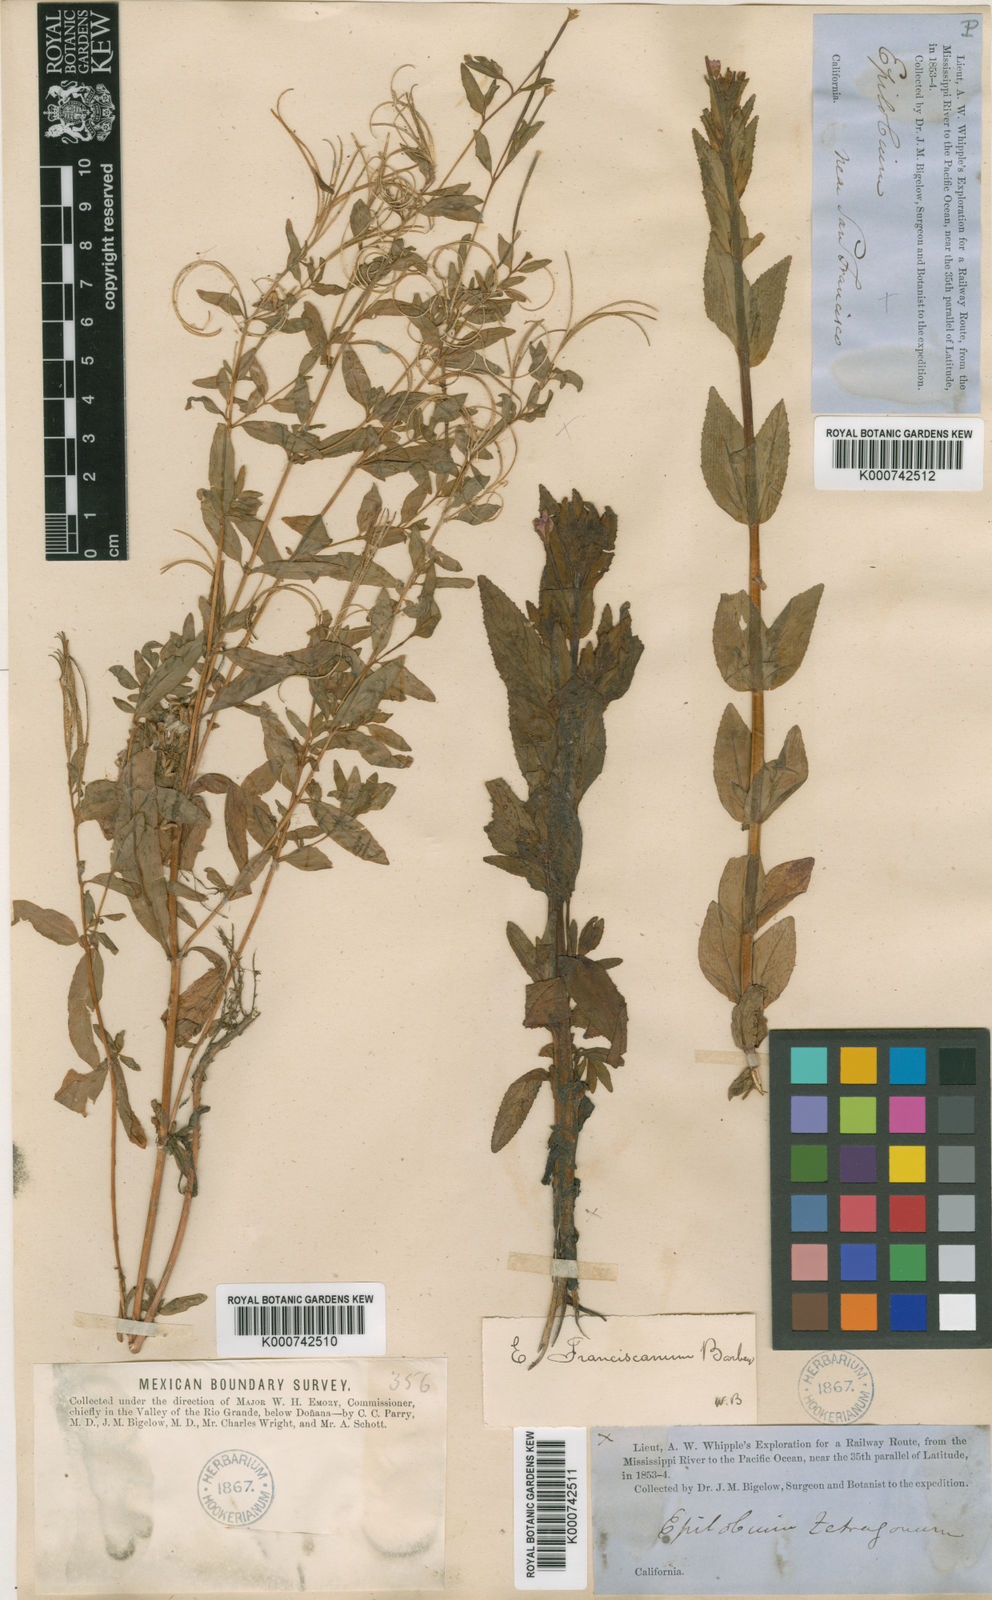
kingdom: Plantae
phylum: Tracheophyta
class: Magnoliopsida
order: Myrtales
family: Onagraceae
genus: Epilobium
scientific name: Epilobium ciliatum
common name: American willowherb
